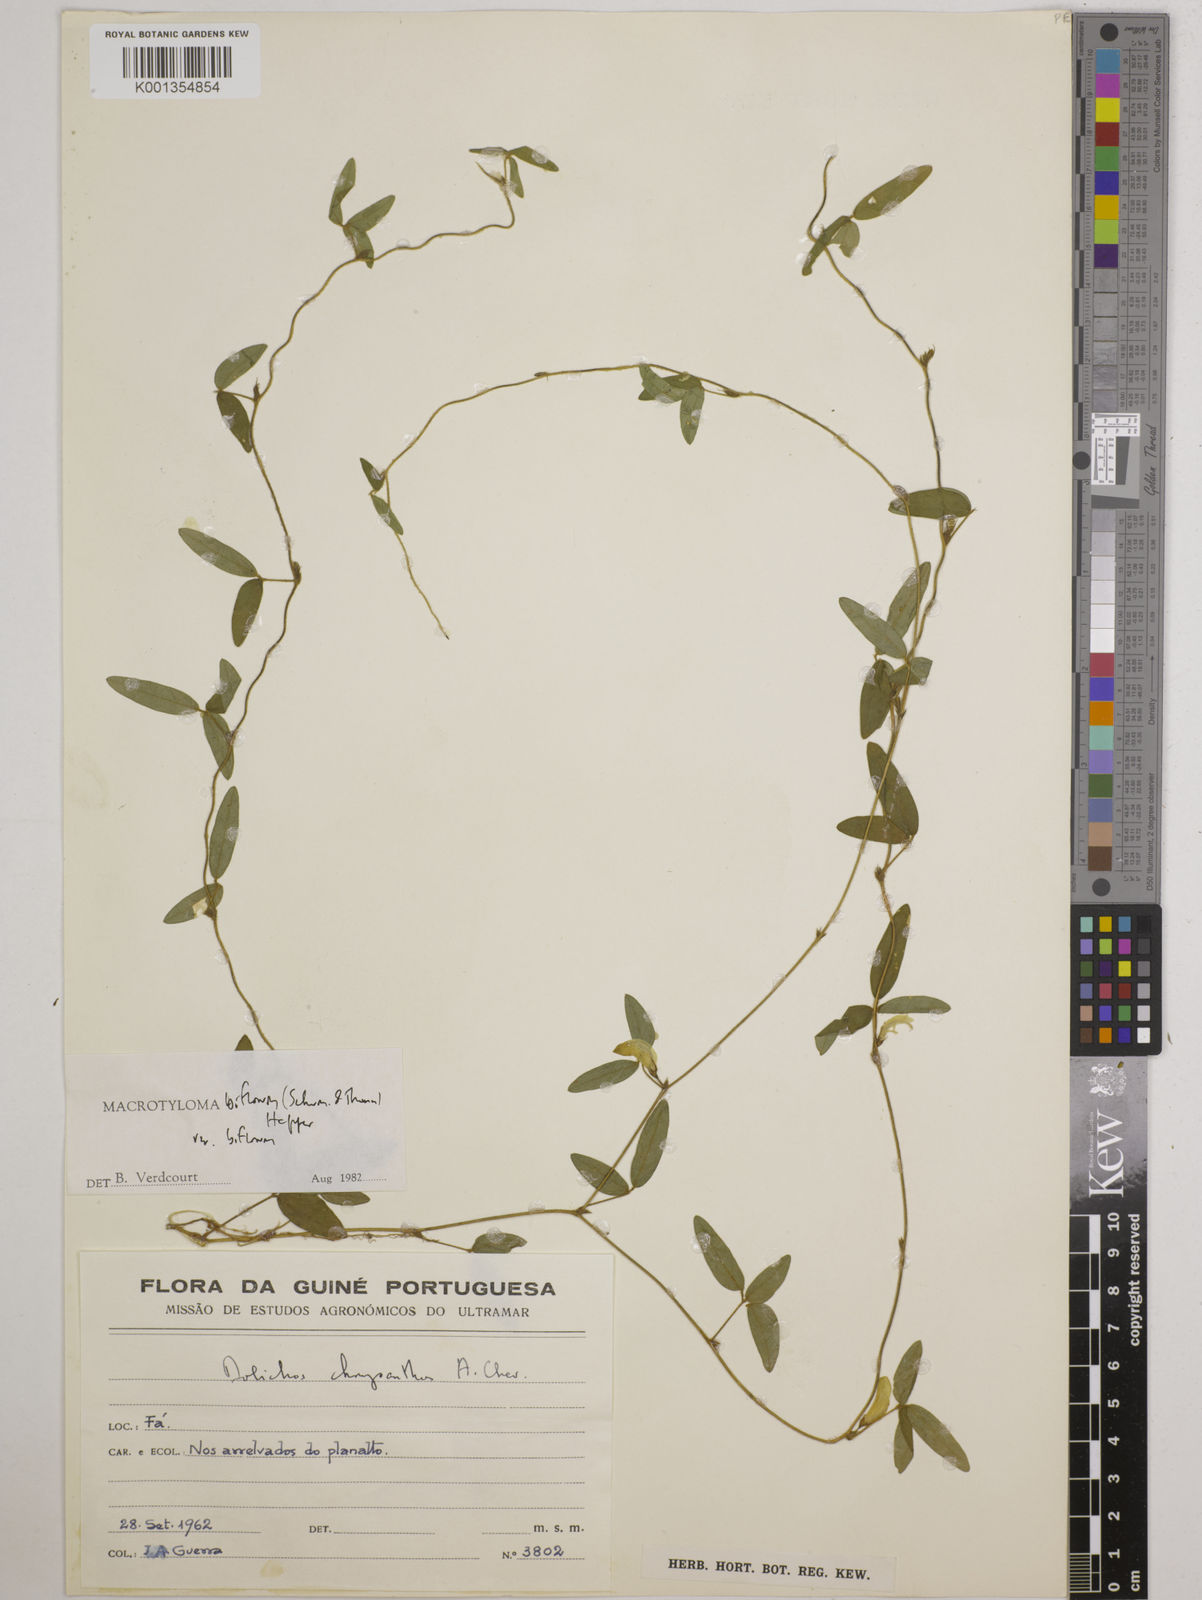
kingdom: Plantae
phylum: Tracheophyta
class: Magnoliopsida
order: Fabales
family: Fabaceae
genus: Macrotyloma
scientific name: Macrotyloma biflorum
